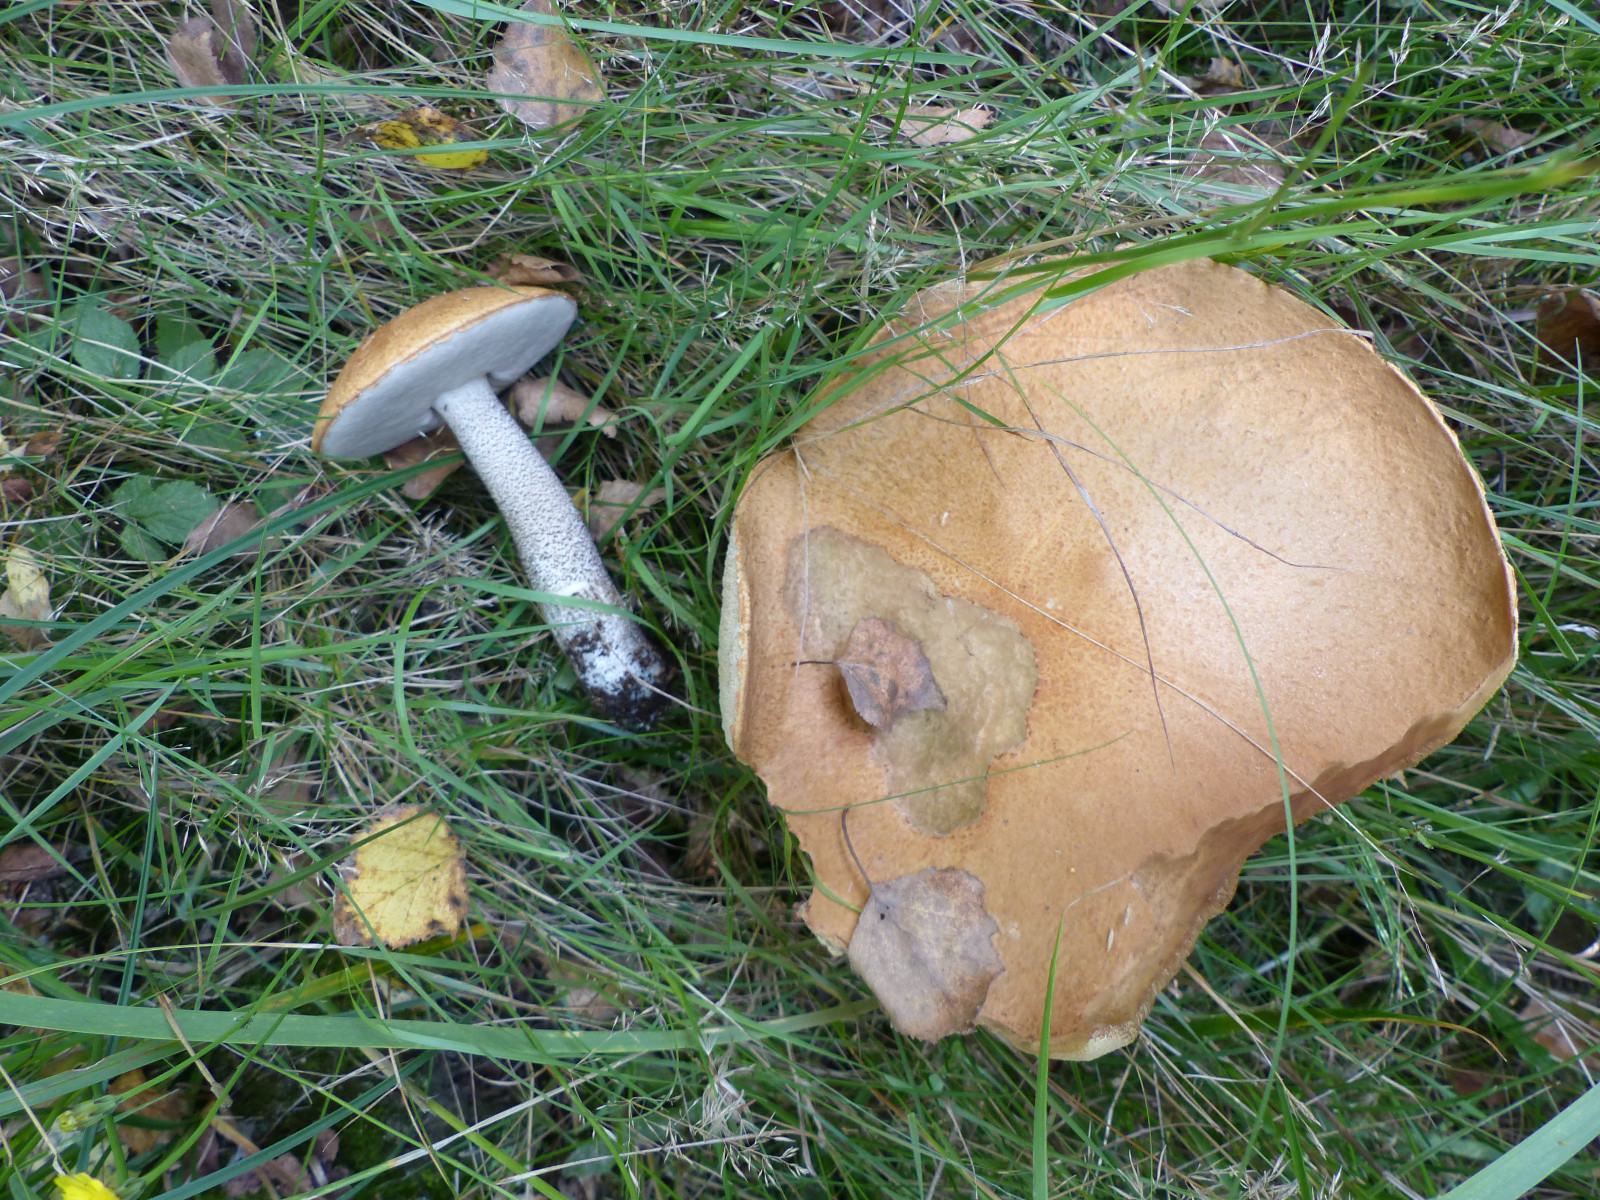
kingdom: Fungi
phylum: Basidiomycota
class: Agaricomycetes
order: Boletales
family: Boletaceae
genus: Leccinum
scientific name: Leccinum versipelle
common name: orange skælrørhat
